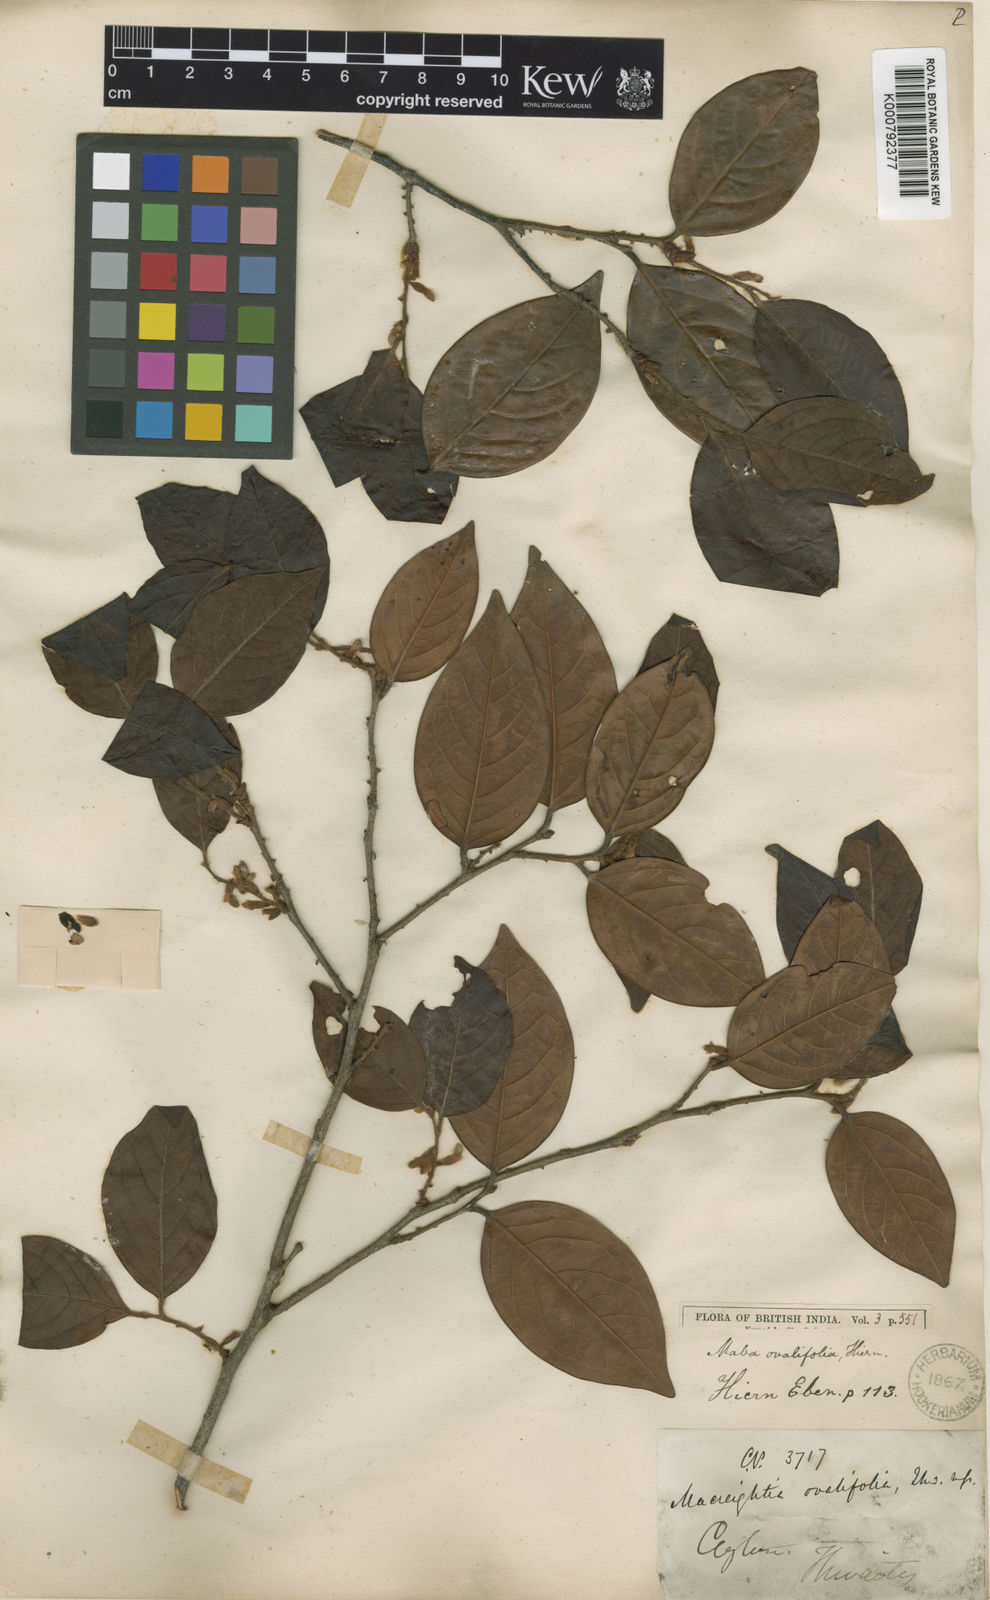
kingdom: Plantae
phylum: Tracheophyta
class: Magnoliopsida
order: Ericales
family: Ebenaceae
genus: Diospyros
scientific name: Diospyros chaetocarpa
